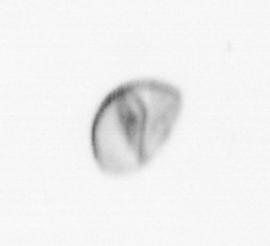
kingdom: Chromista
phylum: Ochrophyta
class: Bacillariophyceae
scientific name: Bacillariophyceae
